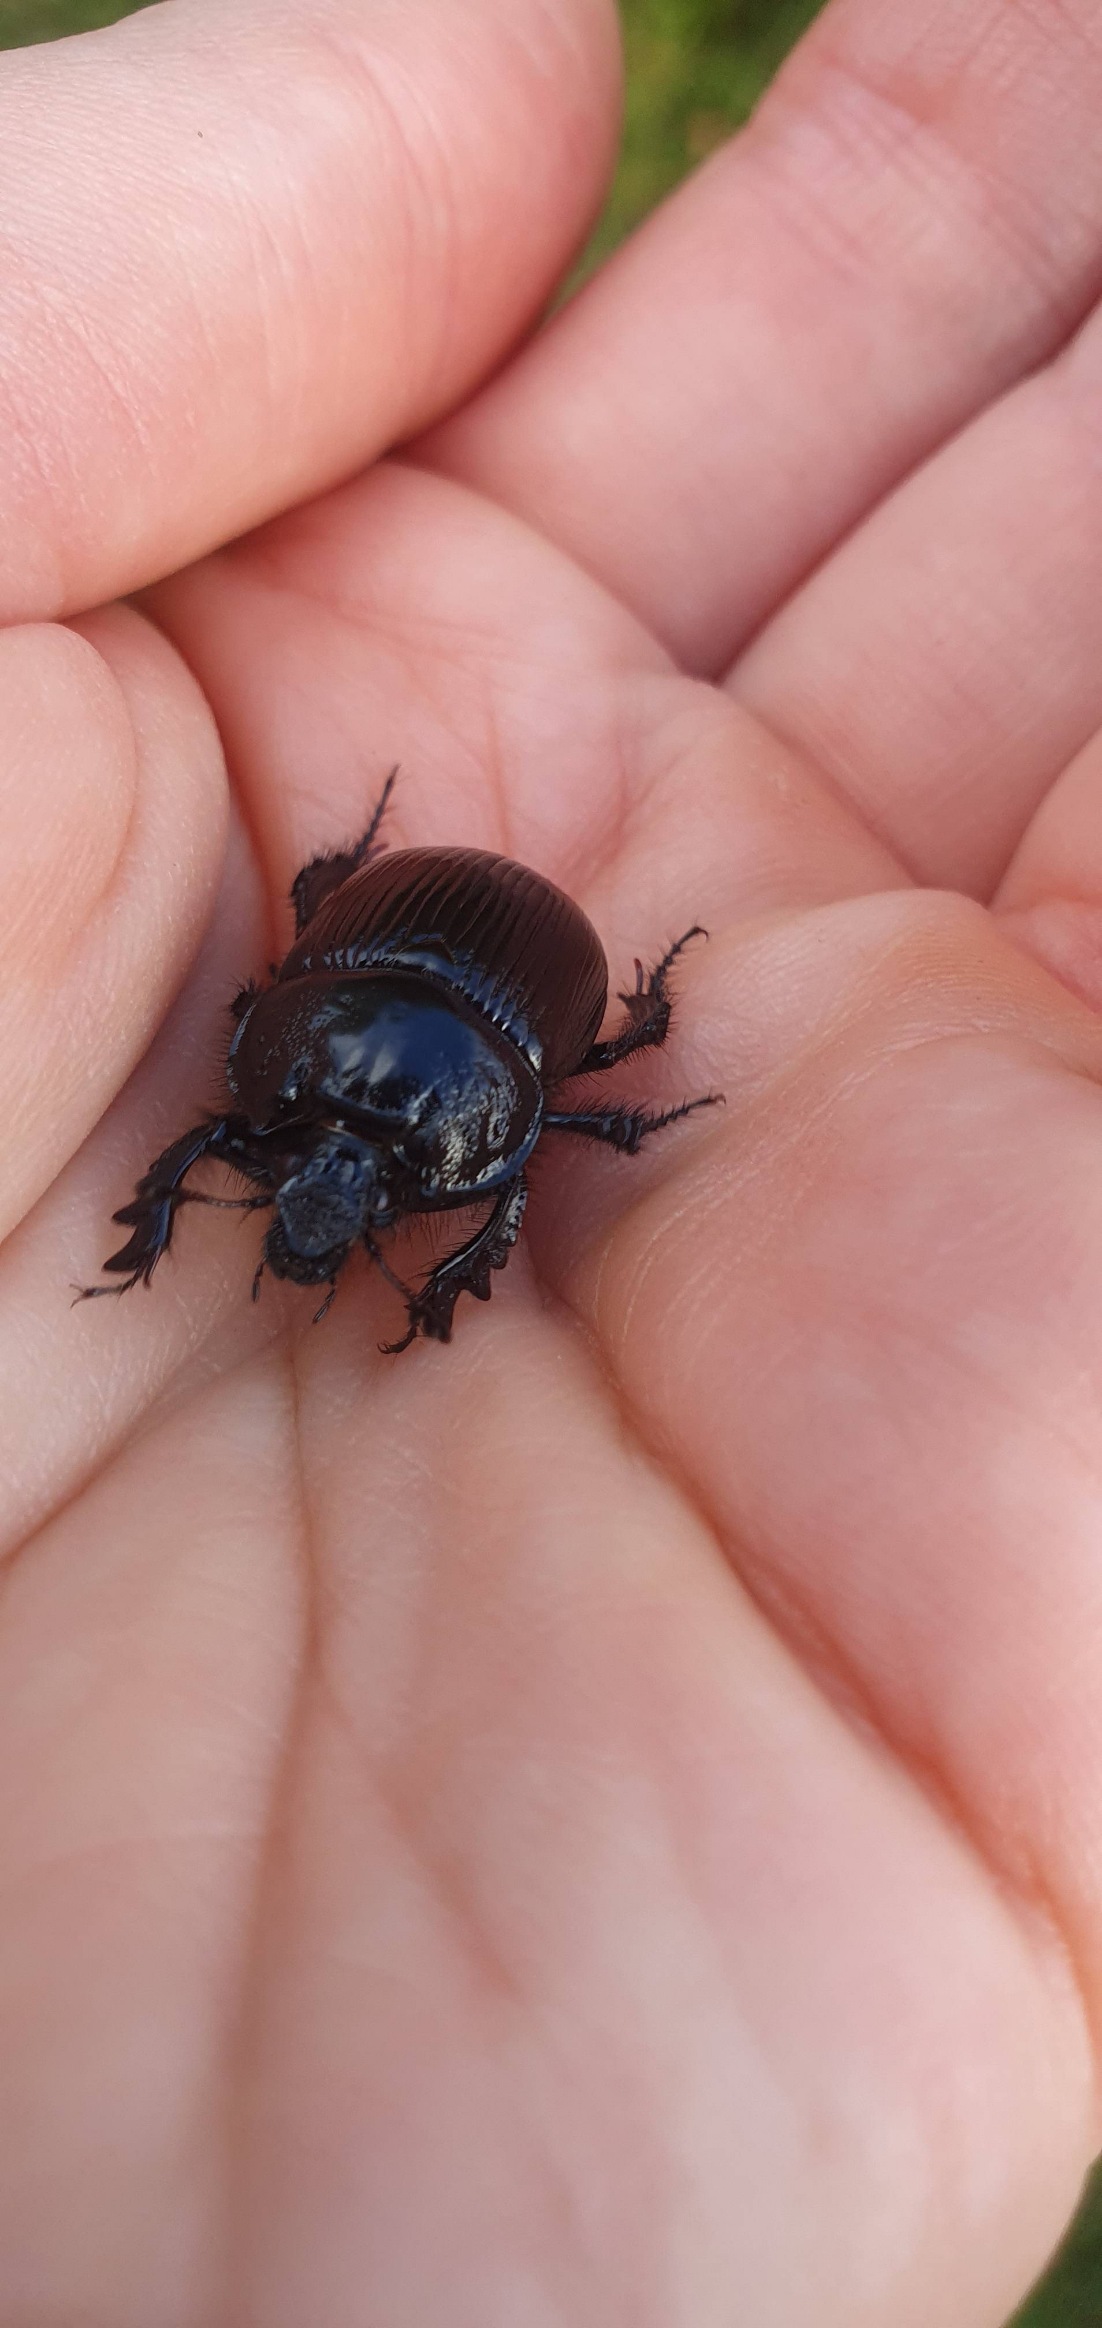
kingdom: Animalia
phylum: Arthropoda
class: Insecta
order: Coleoptera
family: Geotrupidae
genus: Typhaeus
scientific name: Typhaeus typhoeus
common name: Trehornet skarnbasse
